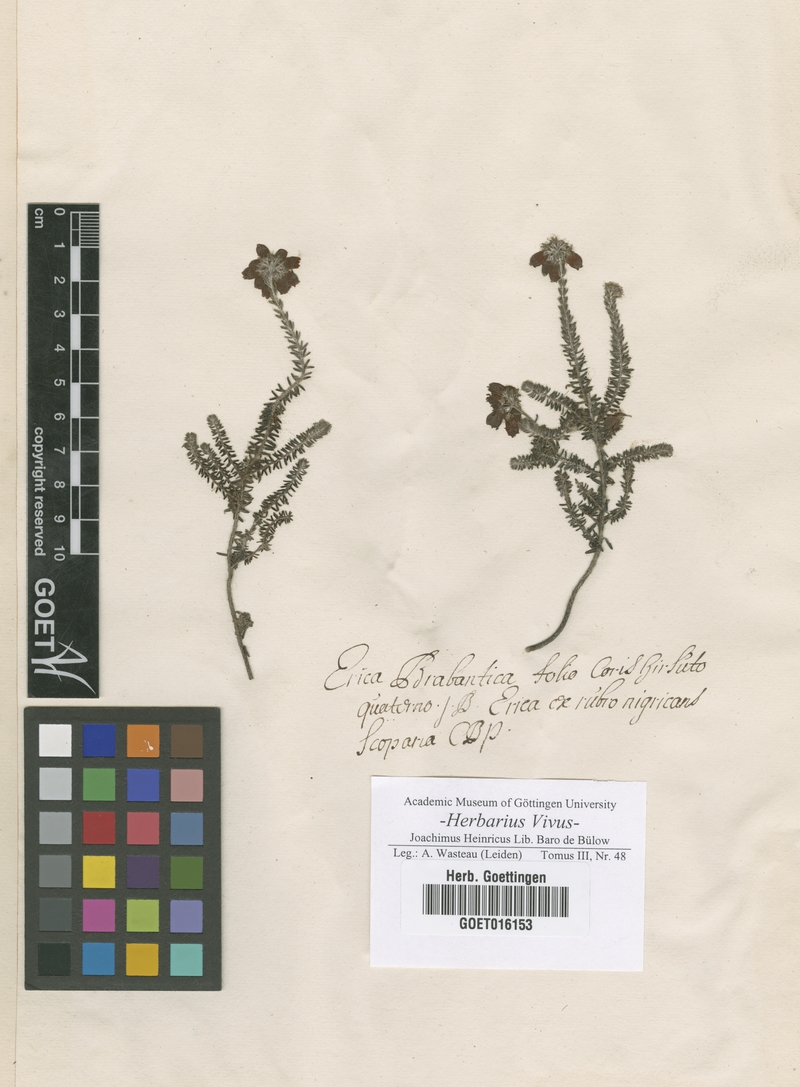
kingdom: Plantae
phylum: Tracheophyta
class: Magnoliopsida
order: Ericales
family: Ericaceae
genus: Erica
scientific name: Erica tetralix
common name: Cross-leaved heath
